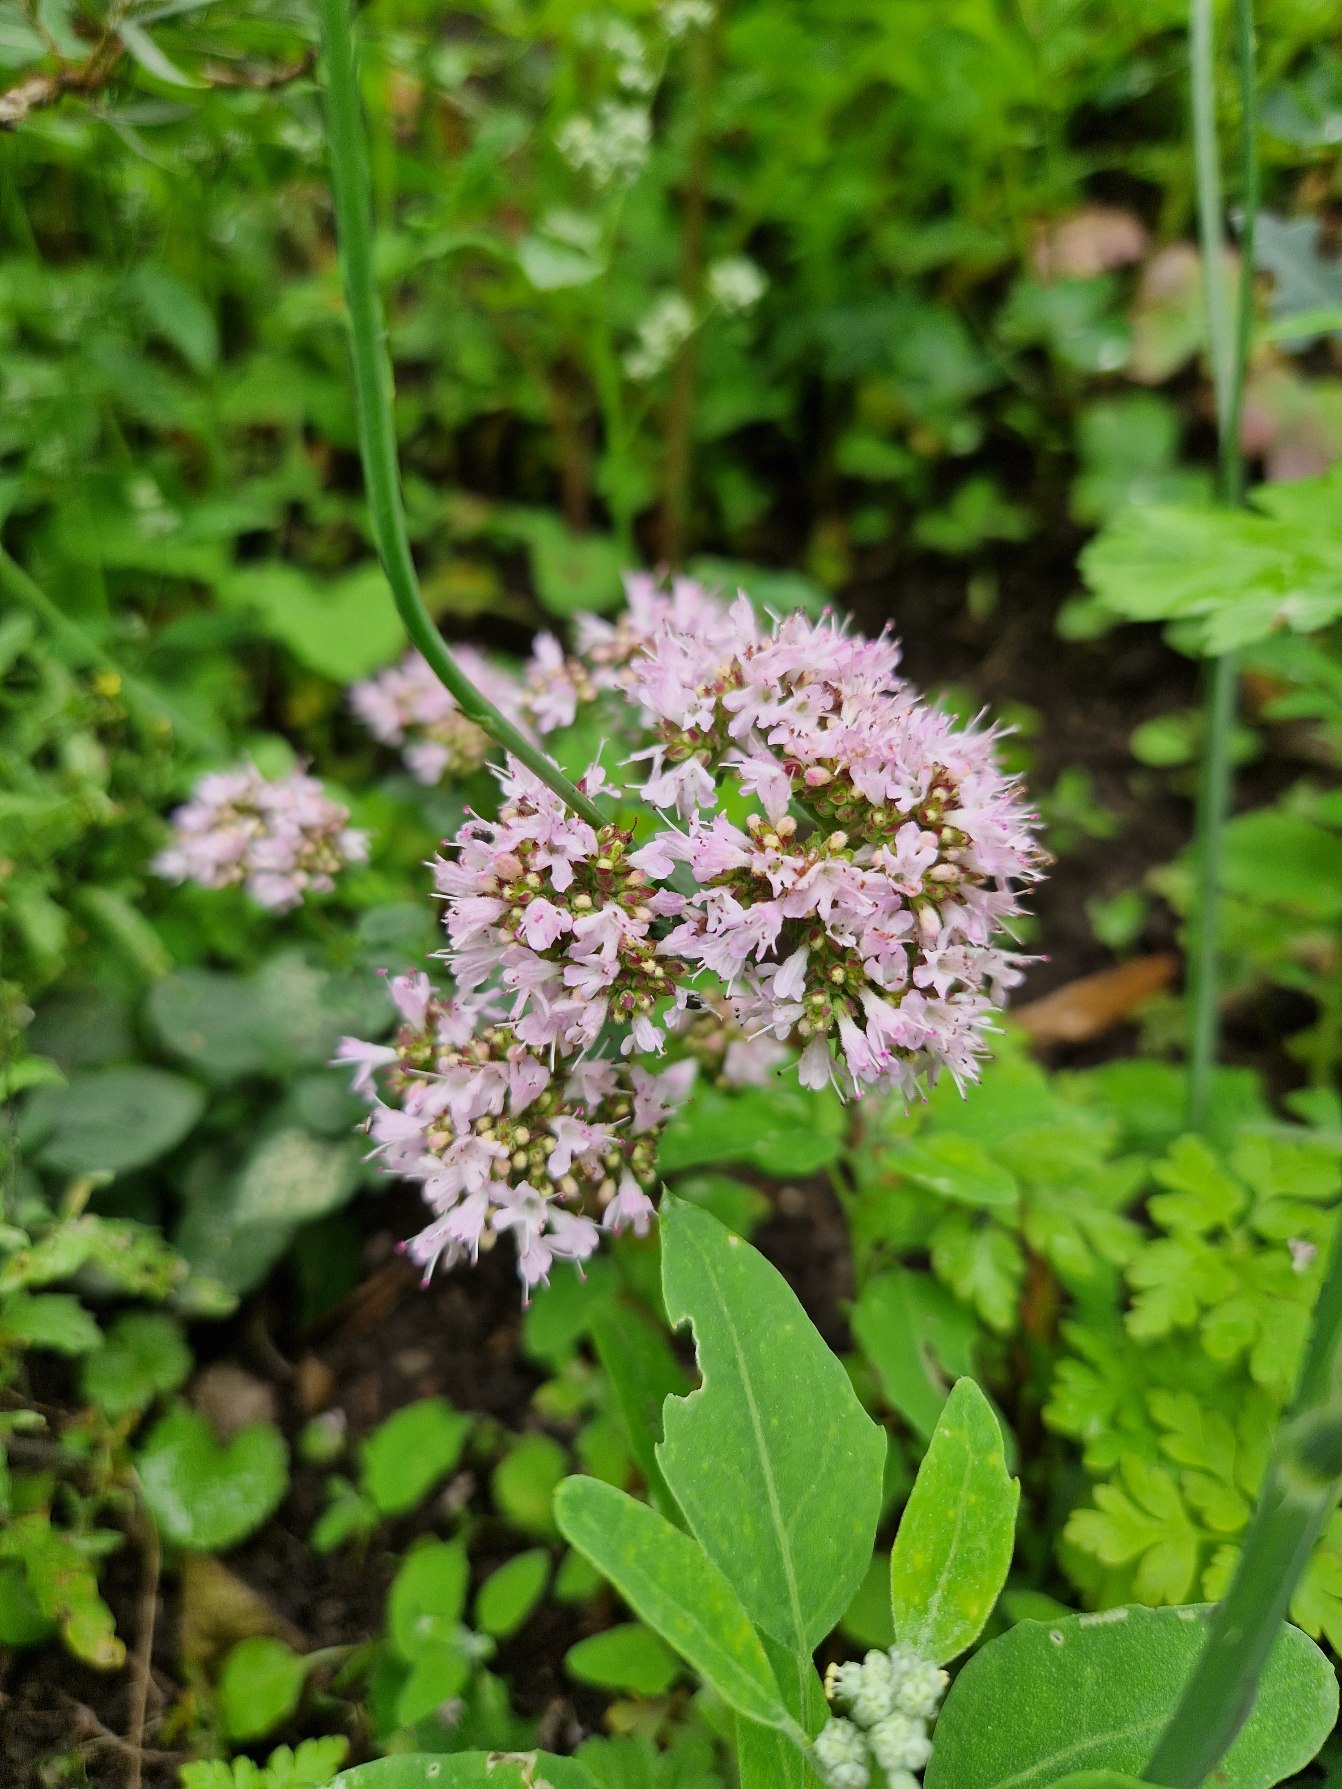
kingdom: Plantae
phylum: Tracheophyta
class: Magnoliopsida
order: Lamiales
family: Lamiaceae
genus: Origanum
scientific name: Origanum vulgare
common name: Merian
